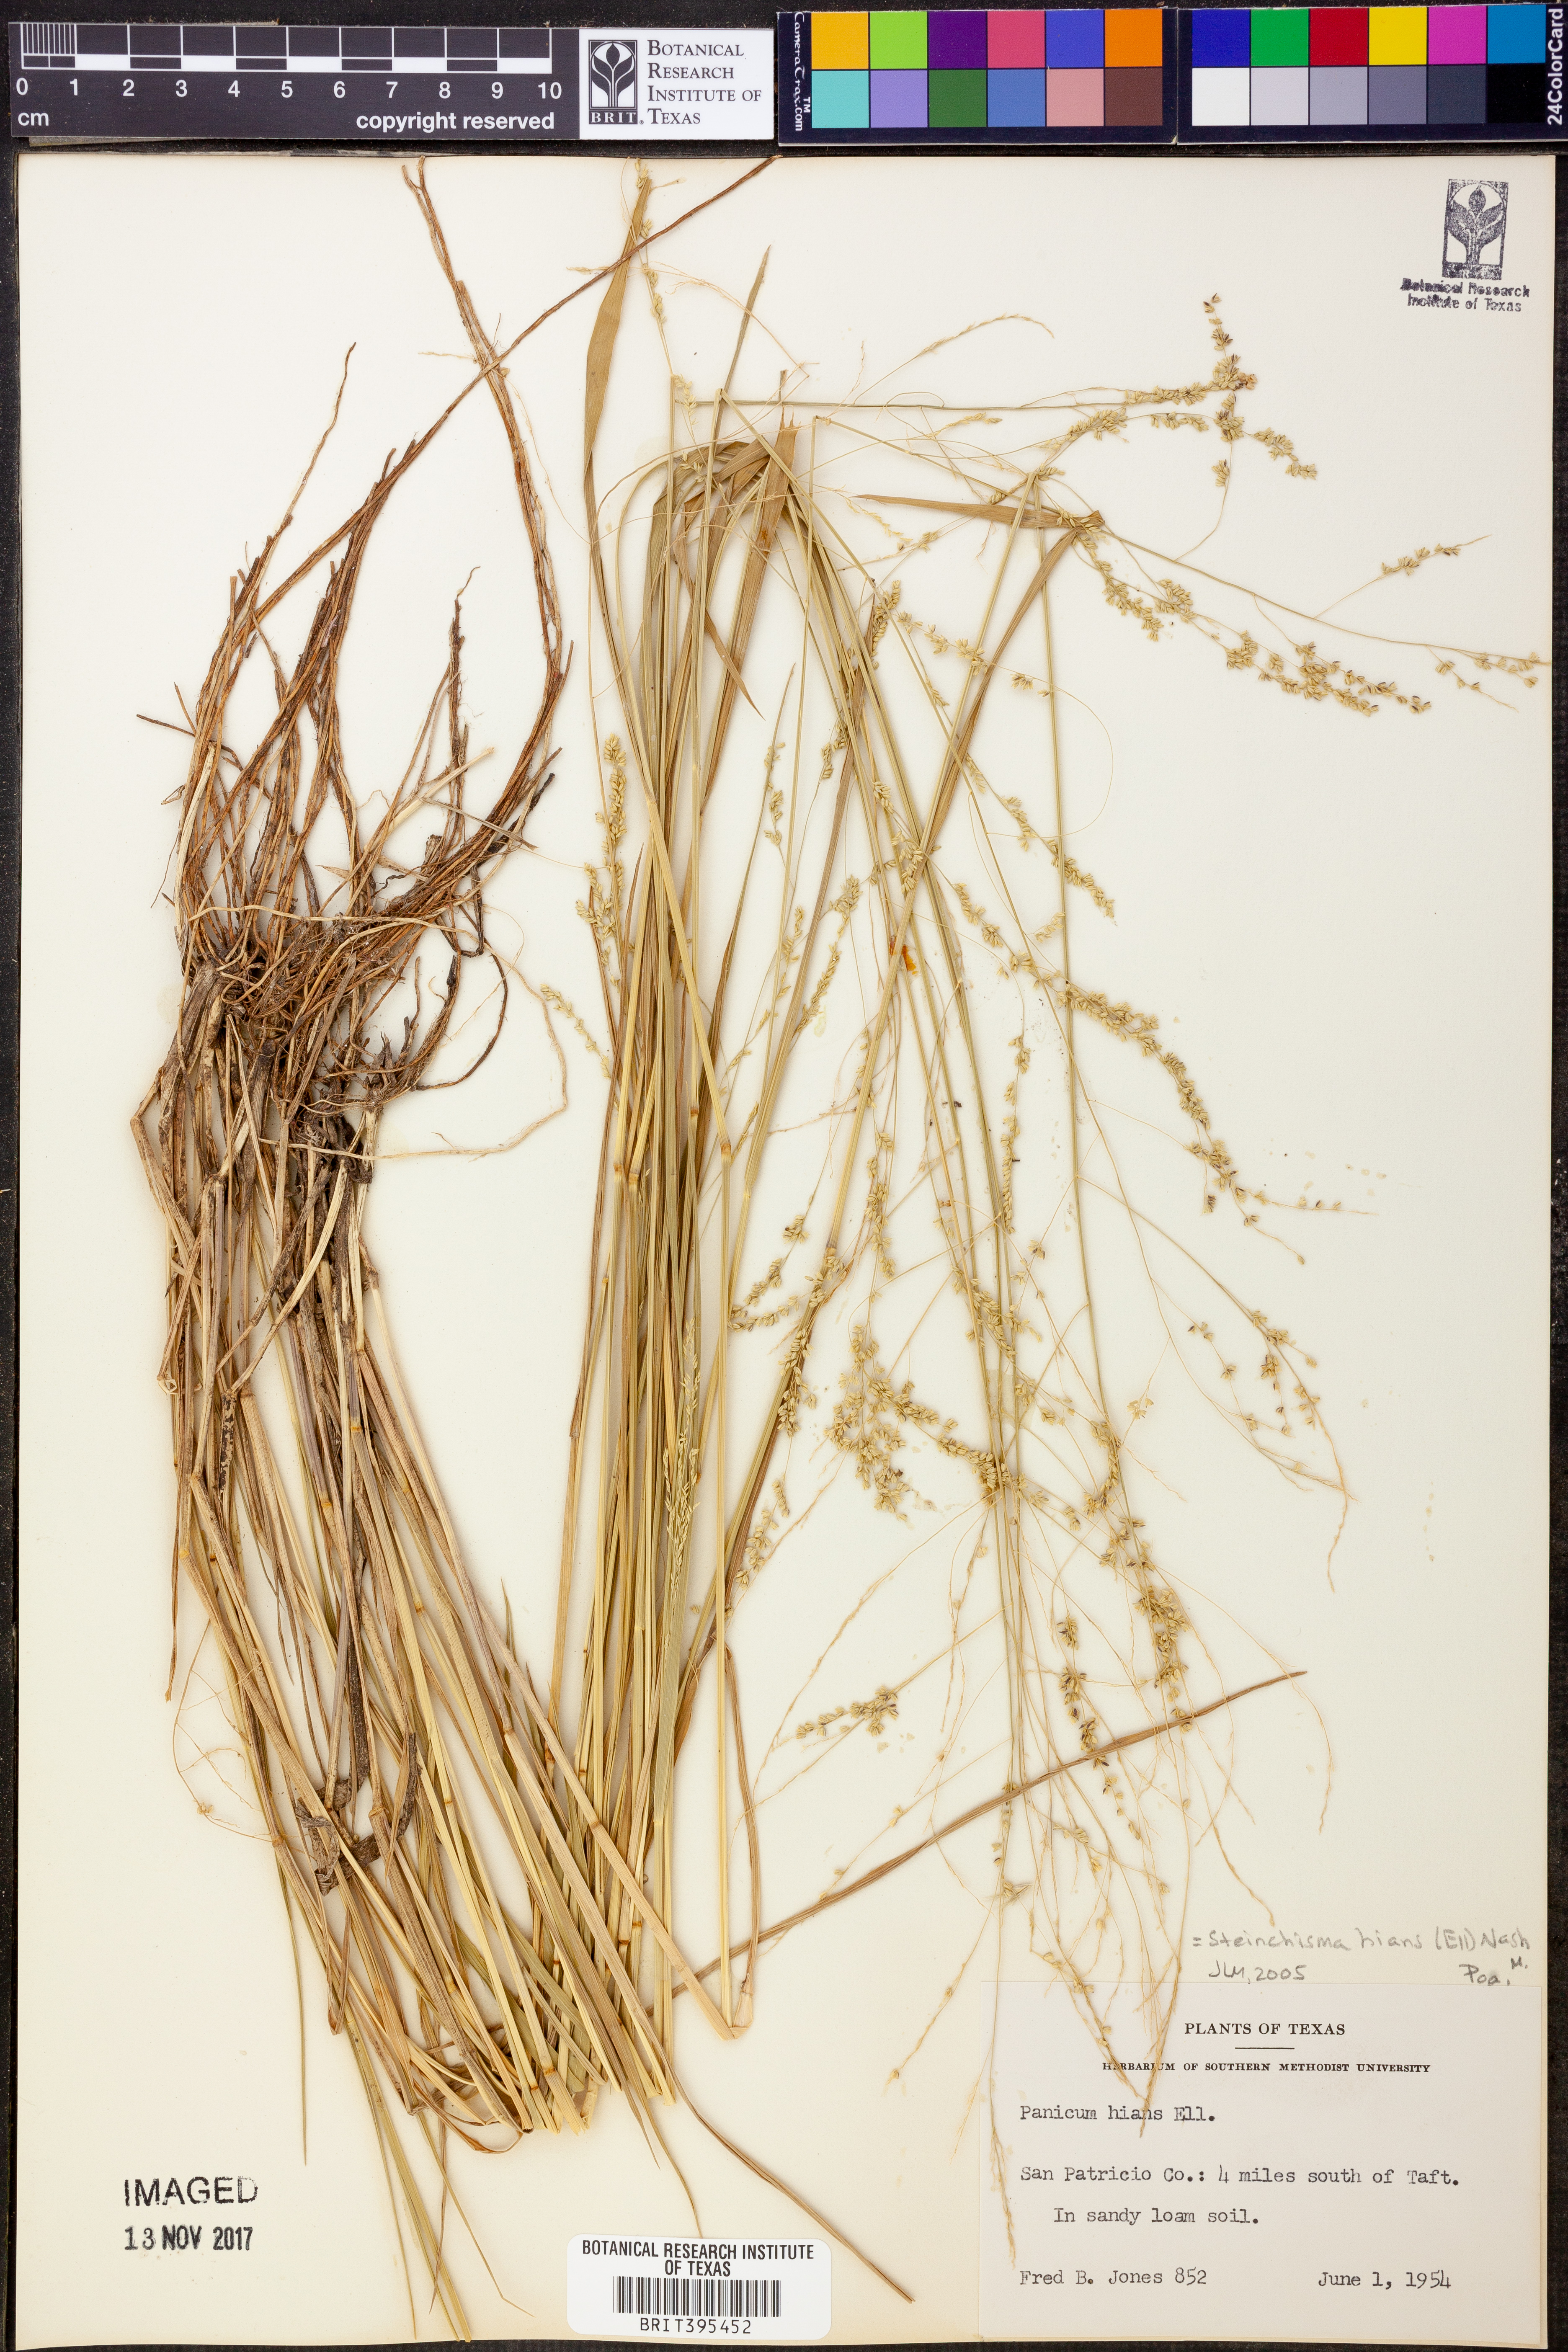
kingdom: Plantae
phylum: Tracheophyta
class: Liliopsida
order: Poales
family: Poaceae
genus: Steinchisma
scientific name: Steinchisma hians
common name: Gaping panic grass
